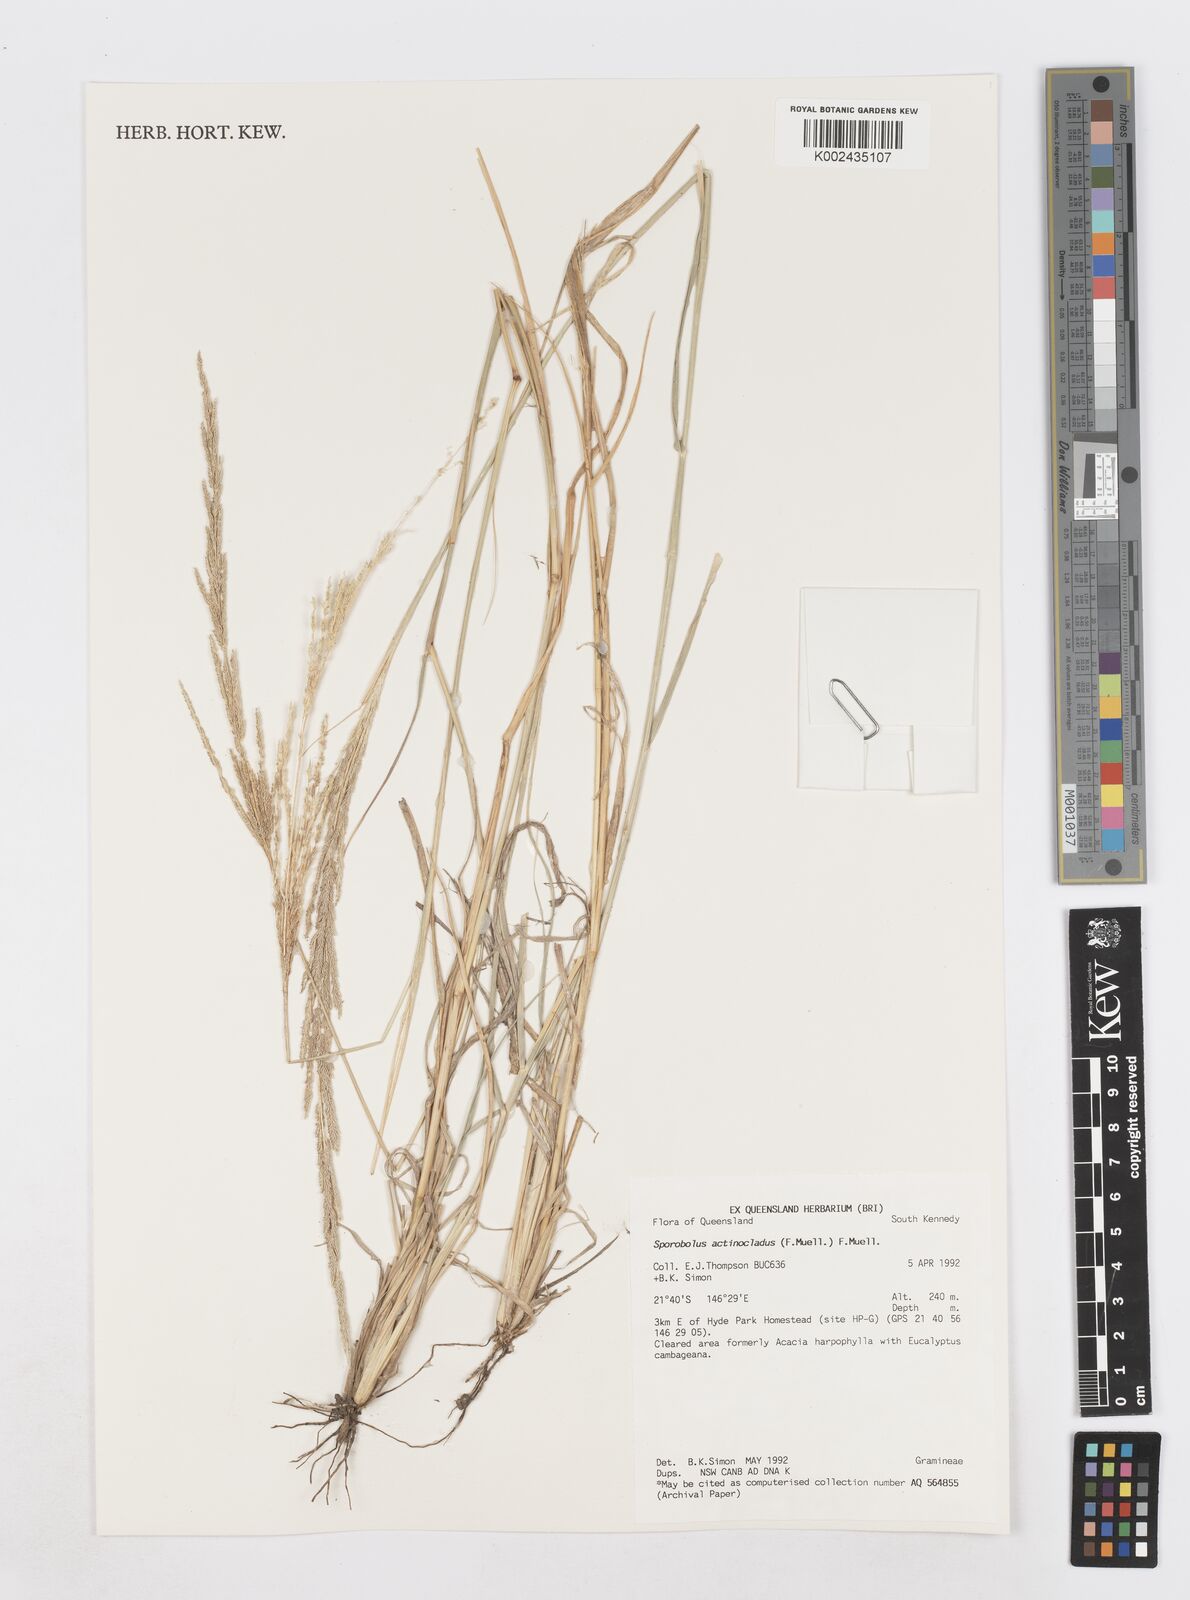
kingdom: Plantae
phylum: Tracheophyta
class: Liliopsida
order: Poales
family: Poaceae
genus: Sporobolus
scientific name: Sporobolus actinocladus
